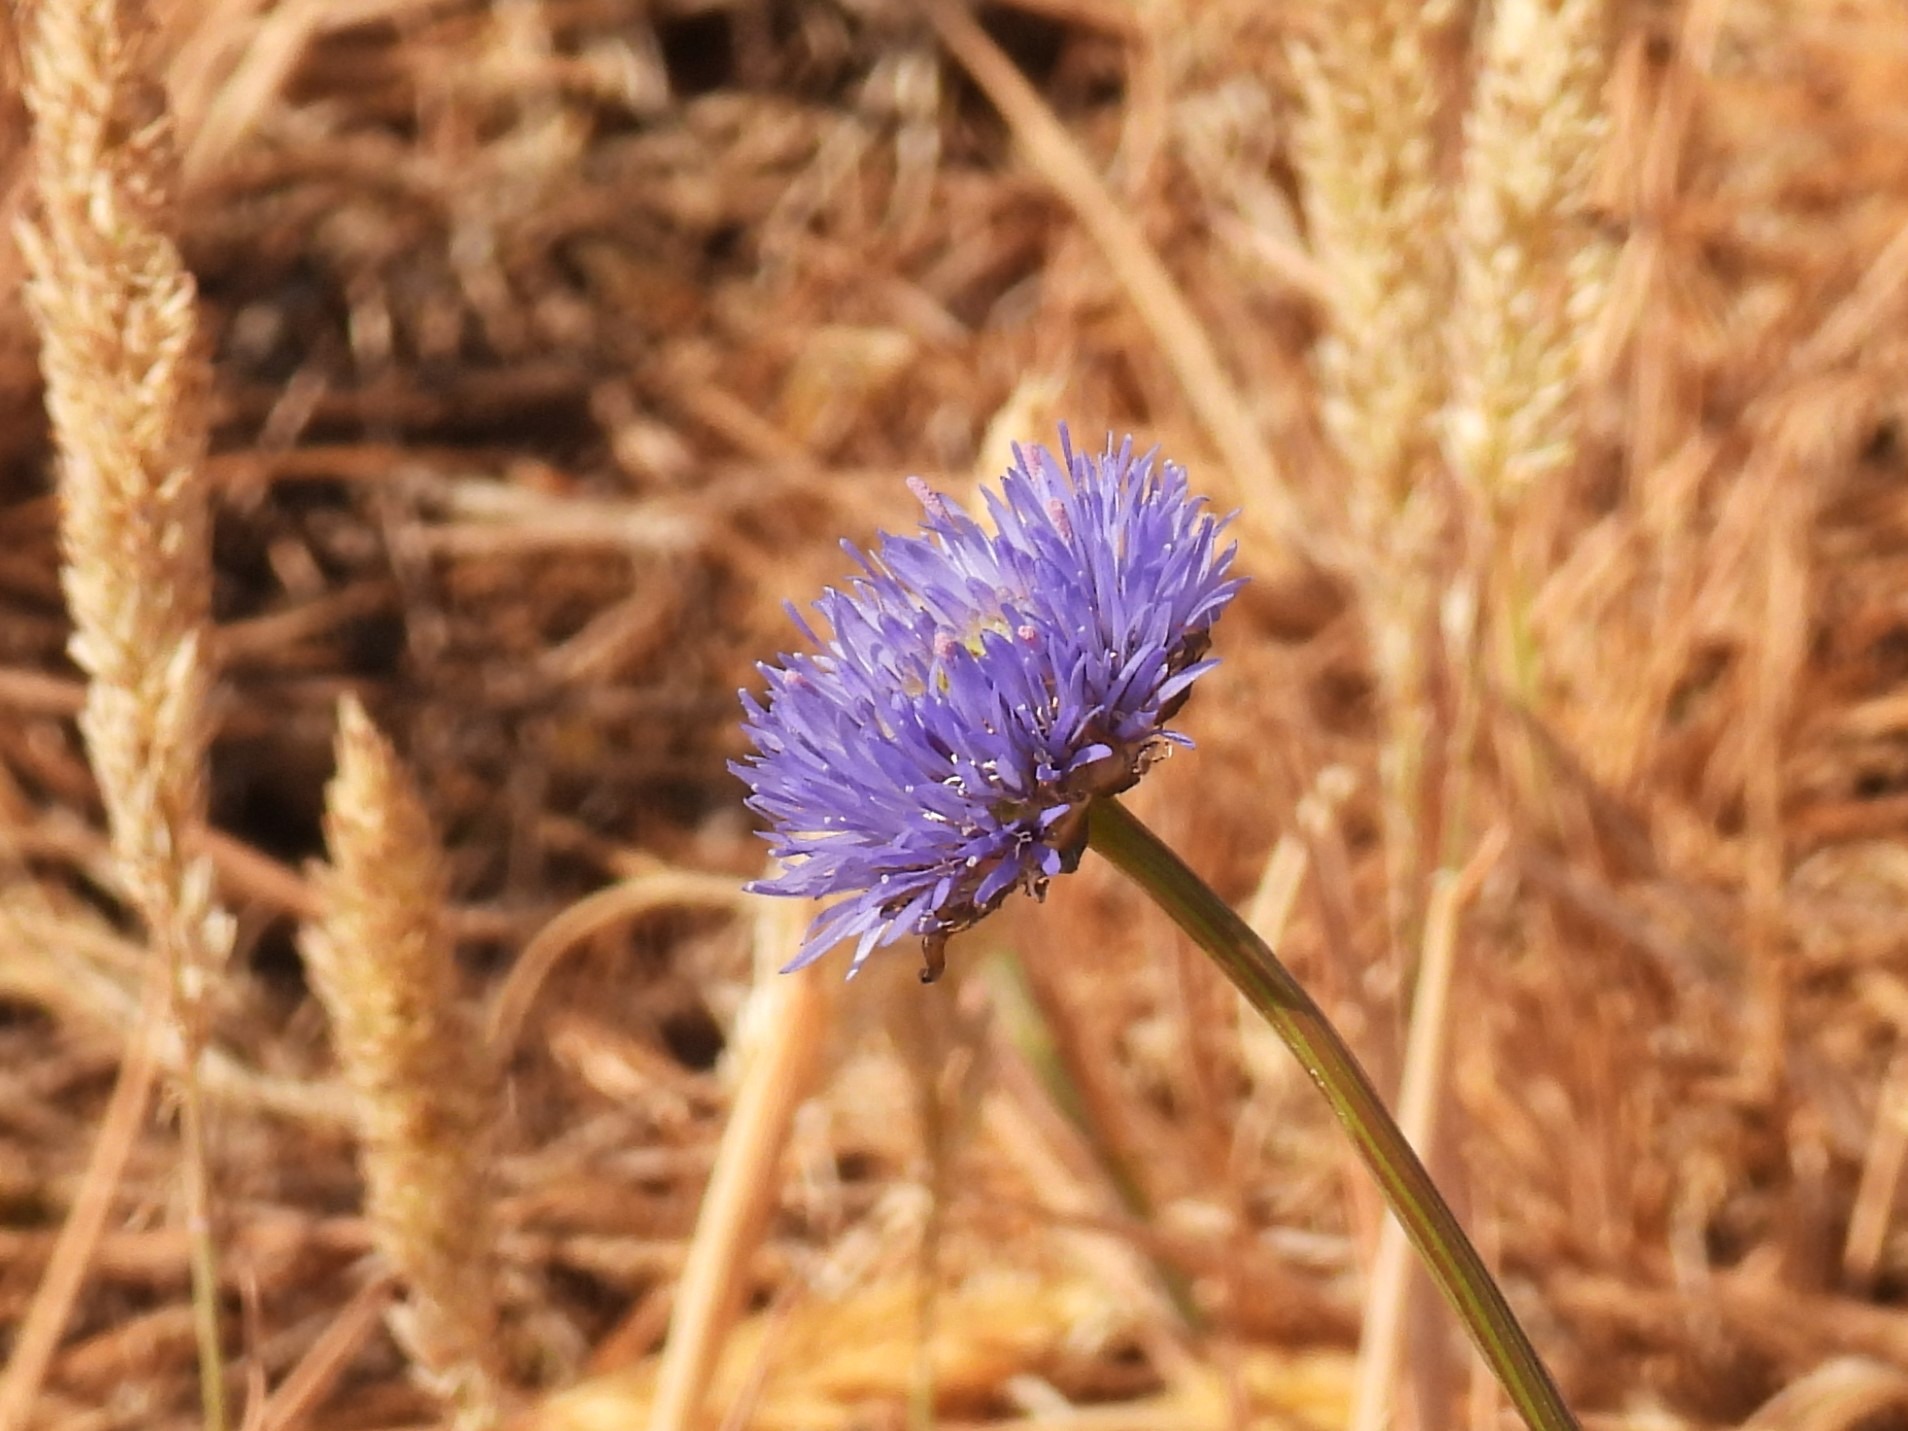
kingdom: Plantae
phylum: Tracheophyta
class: Magnoliopsida
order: Asterales
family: Campanulaceae
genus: Jasione
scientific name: Jasione montana
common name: Blåmunke
